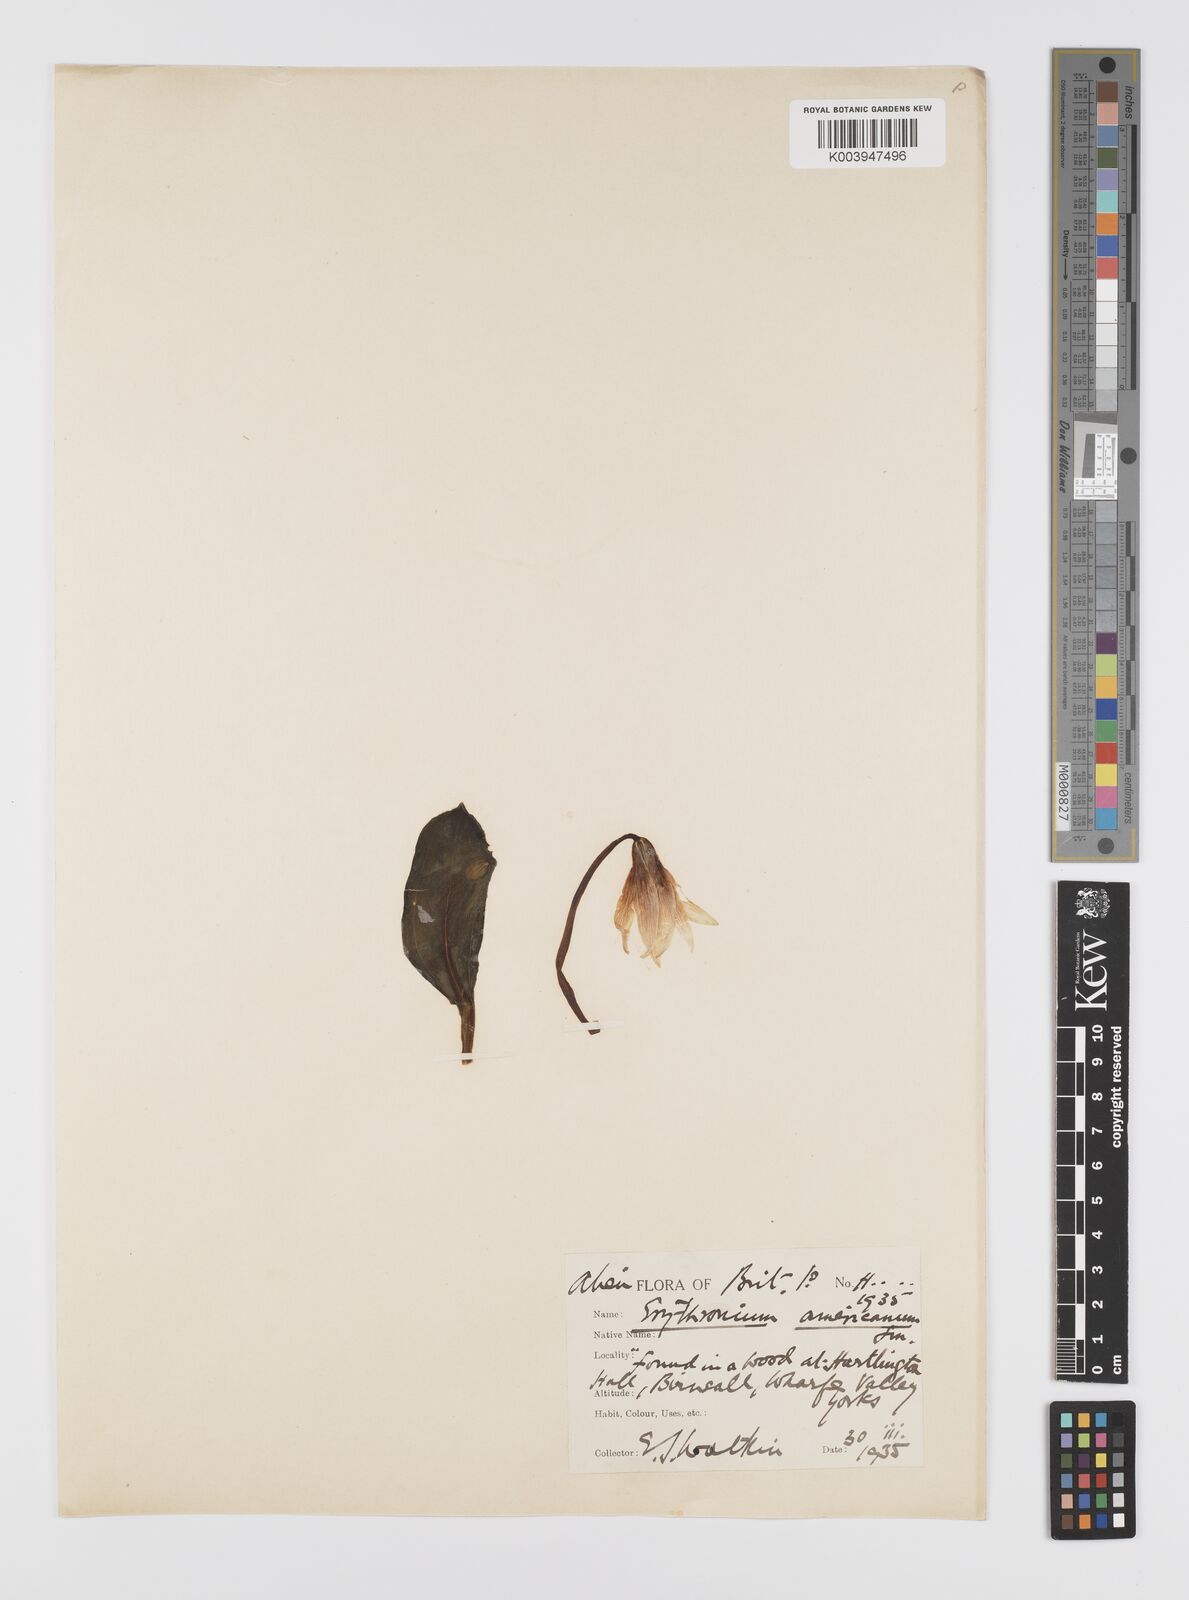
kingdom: Plantae
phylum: Tracheophyta
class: Liliopsida
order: Liliales
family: Liliaceae
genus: Erythronium
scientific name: Erythronium americanum
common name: Yellow adder's-tongue
